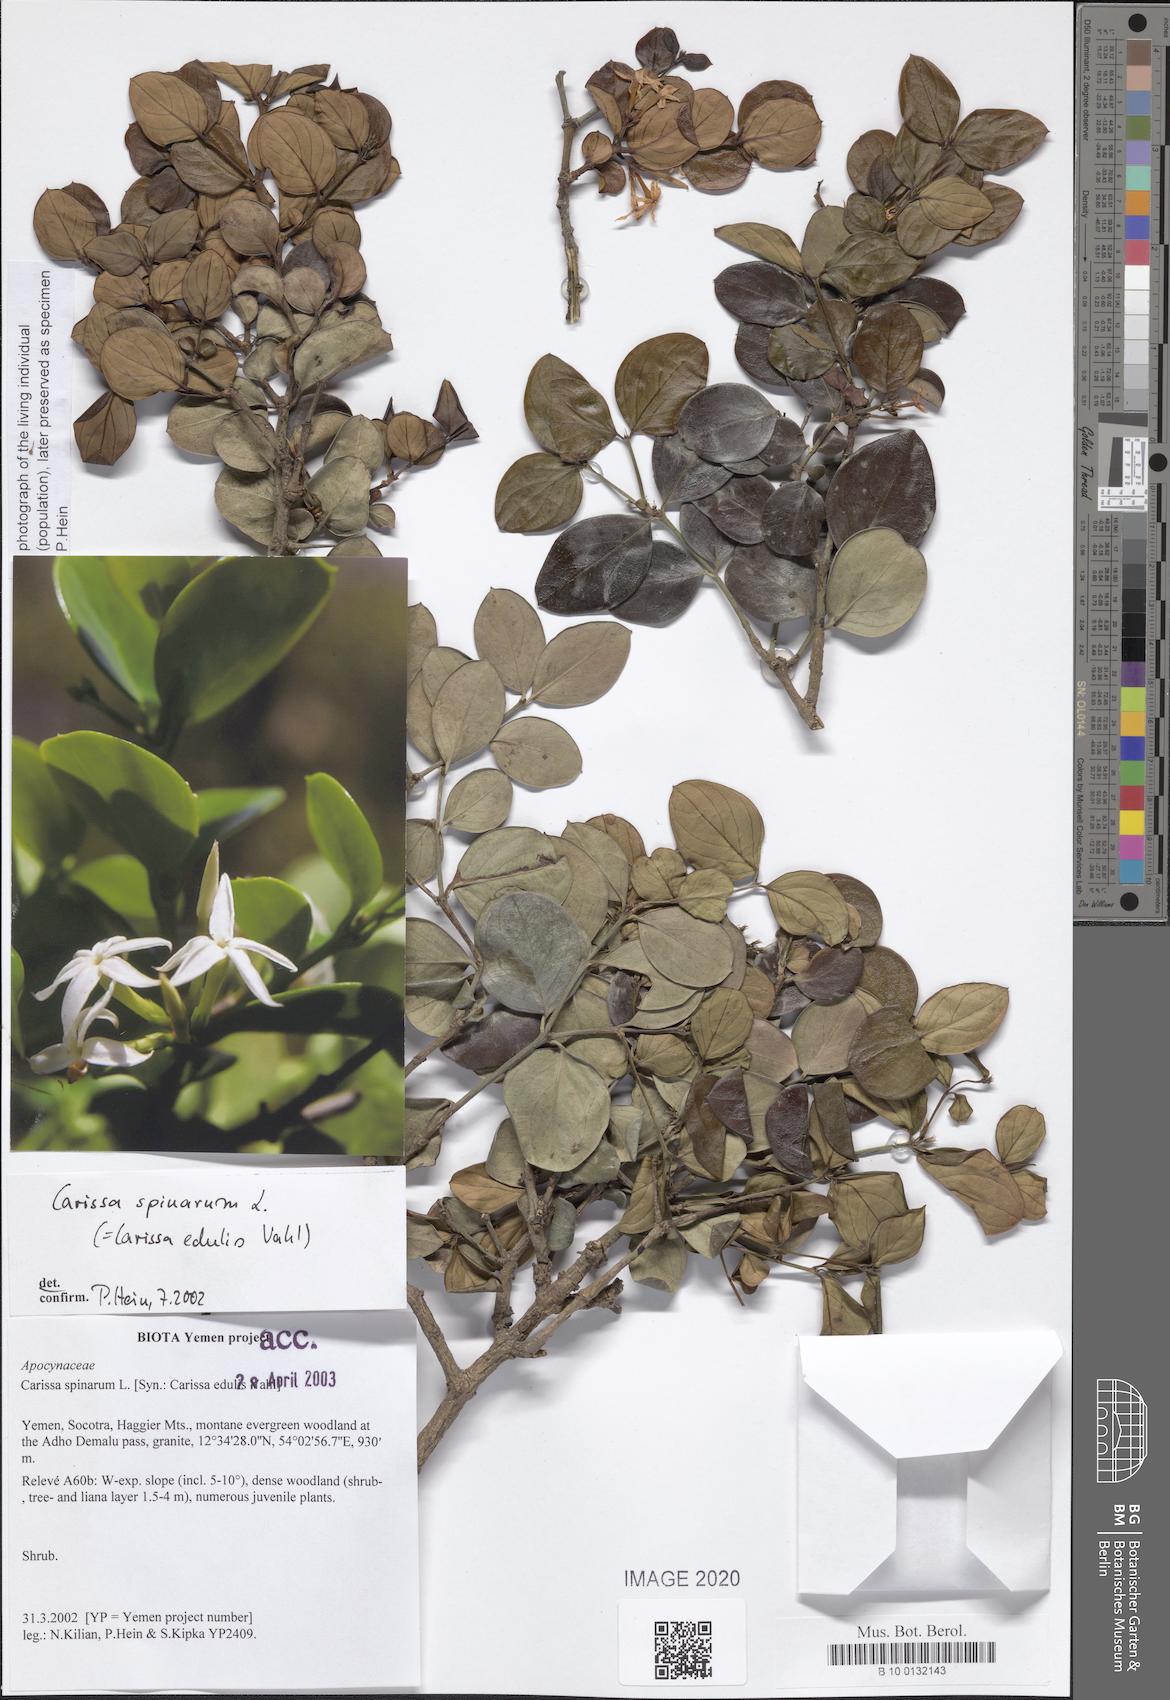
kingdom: Plantae
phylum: Tracheophyta
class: Magnoliopsida
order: Gentianales
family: Apocynaceae
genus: Carissa
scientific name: Carissa spinarum
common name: Egyptian carissa
